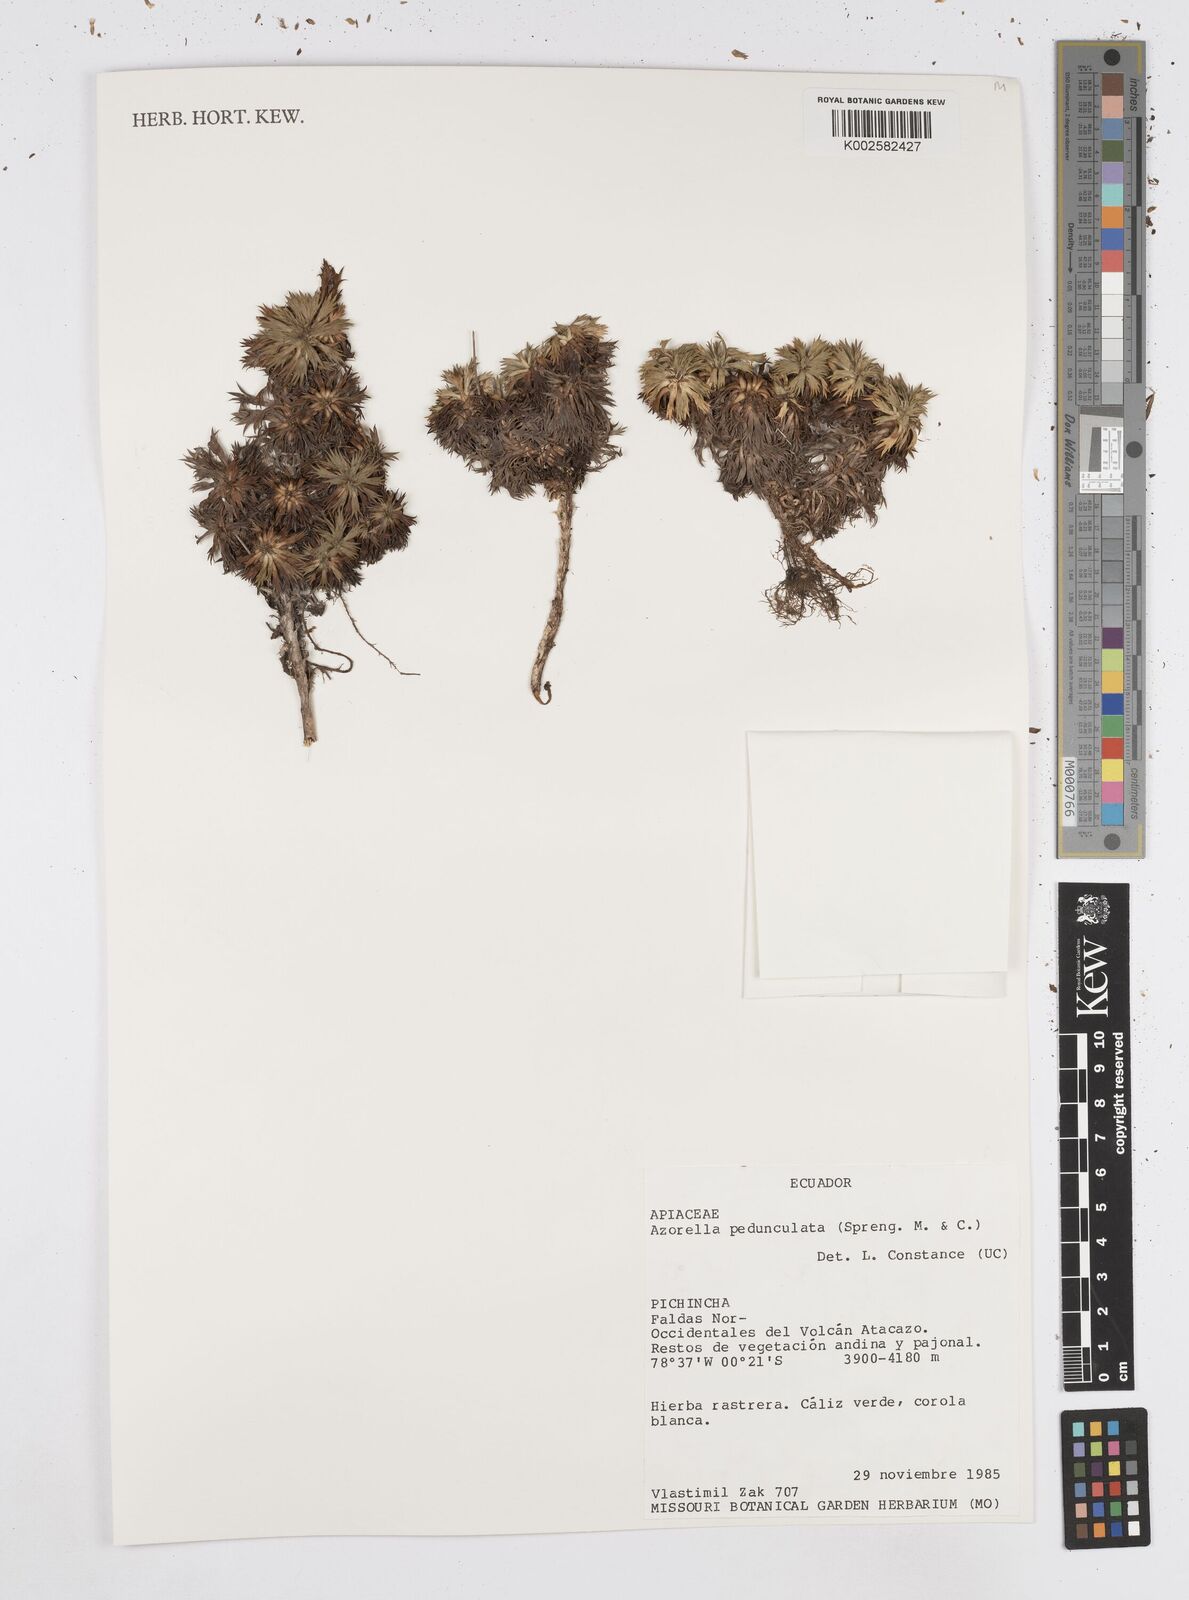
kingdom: Plantae
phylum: Tracheophyta
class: Magnoliopsida
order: Apiales
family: Apiaceae
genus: Azorella
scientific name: Azorella pedunculata
